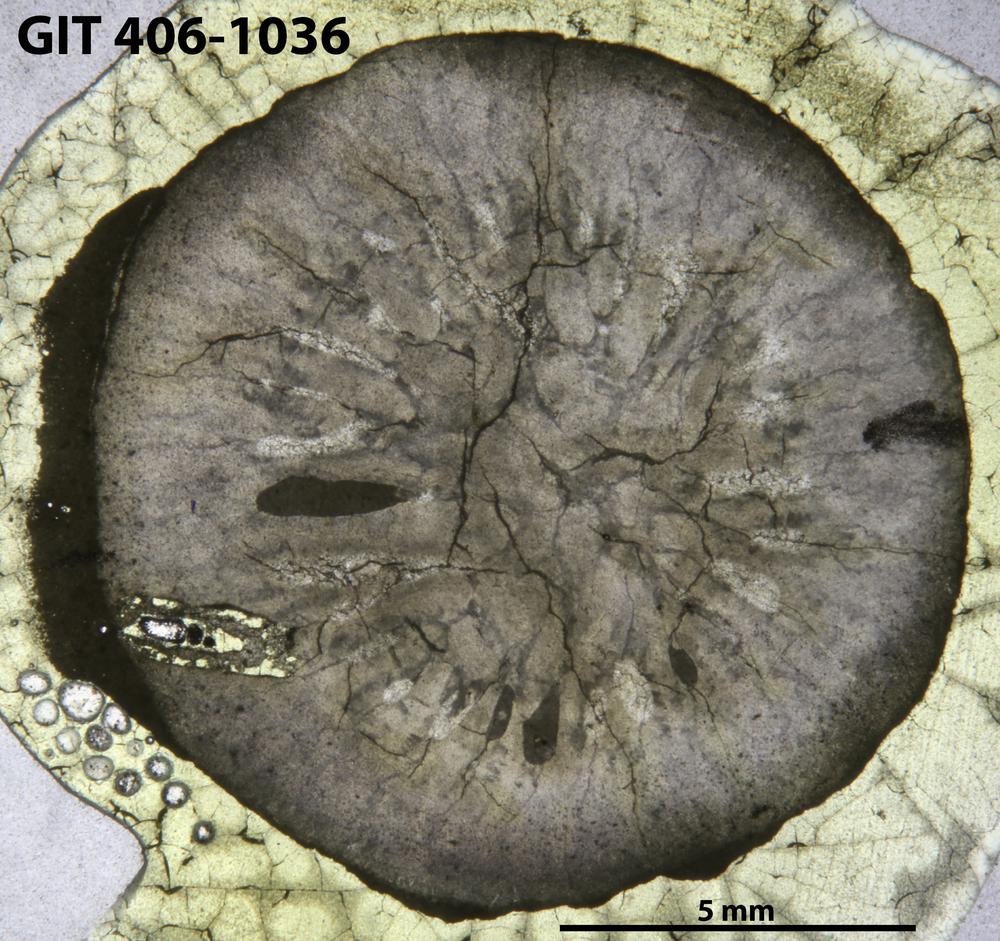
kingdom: Animalia
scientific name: Animalia
